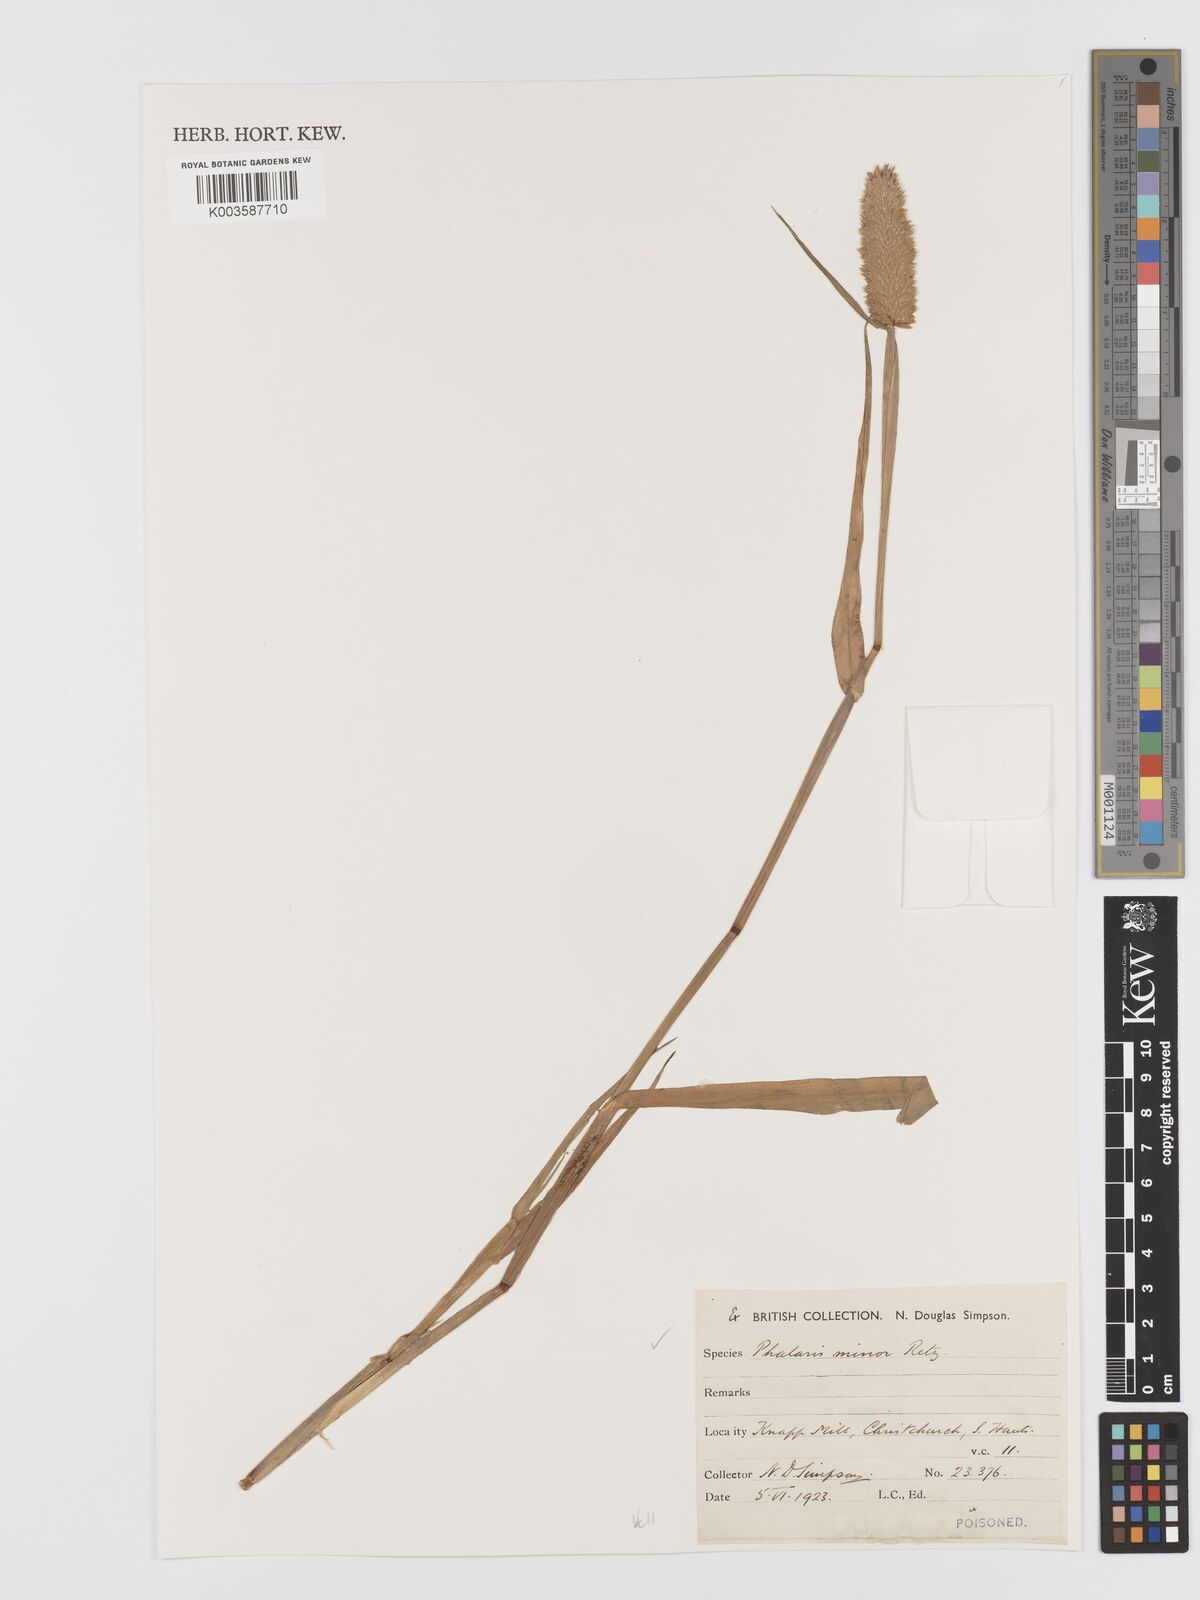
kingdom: Plantae
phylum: Tracheophyta
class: Liliopsida
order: Poales
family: Poaceae
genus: Phalaris
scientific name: Phalaris minor
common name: Littleseed canarygrass
